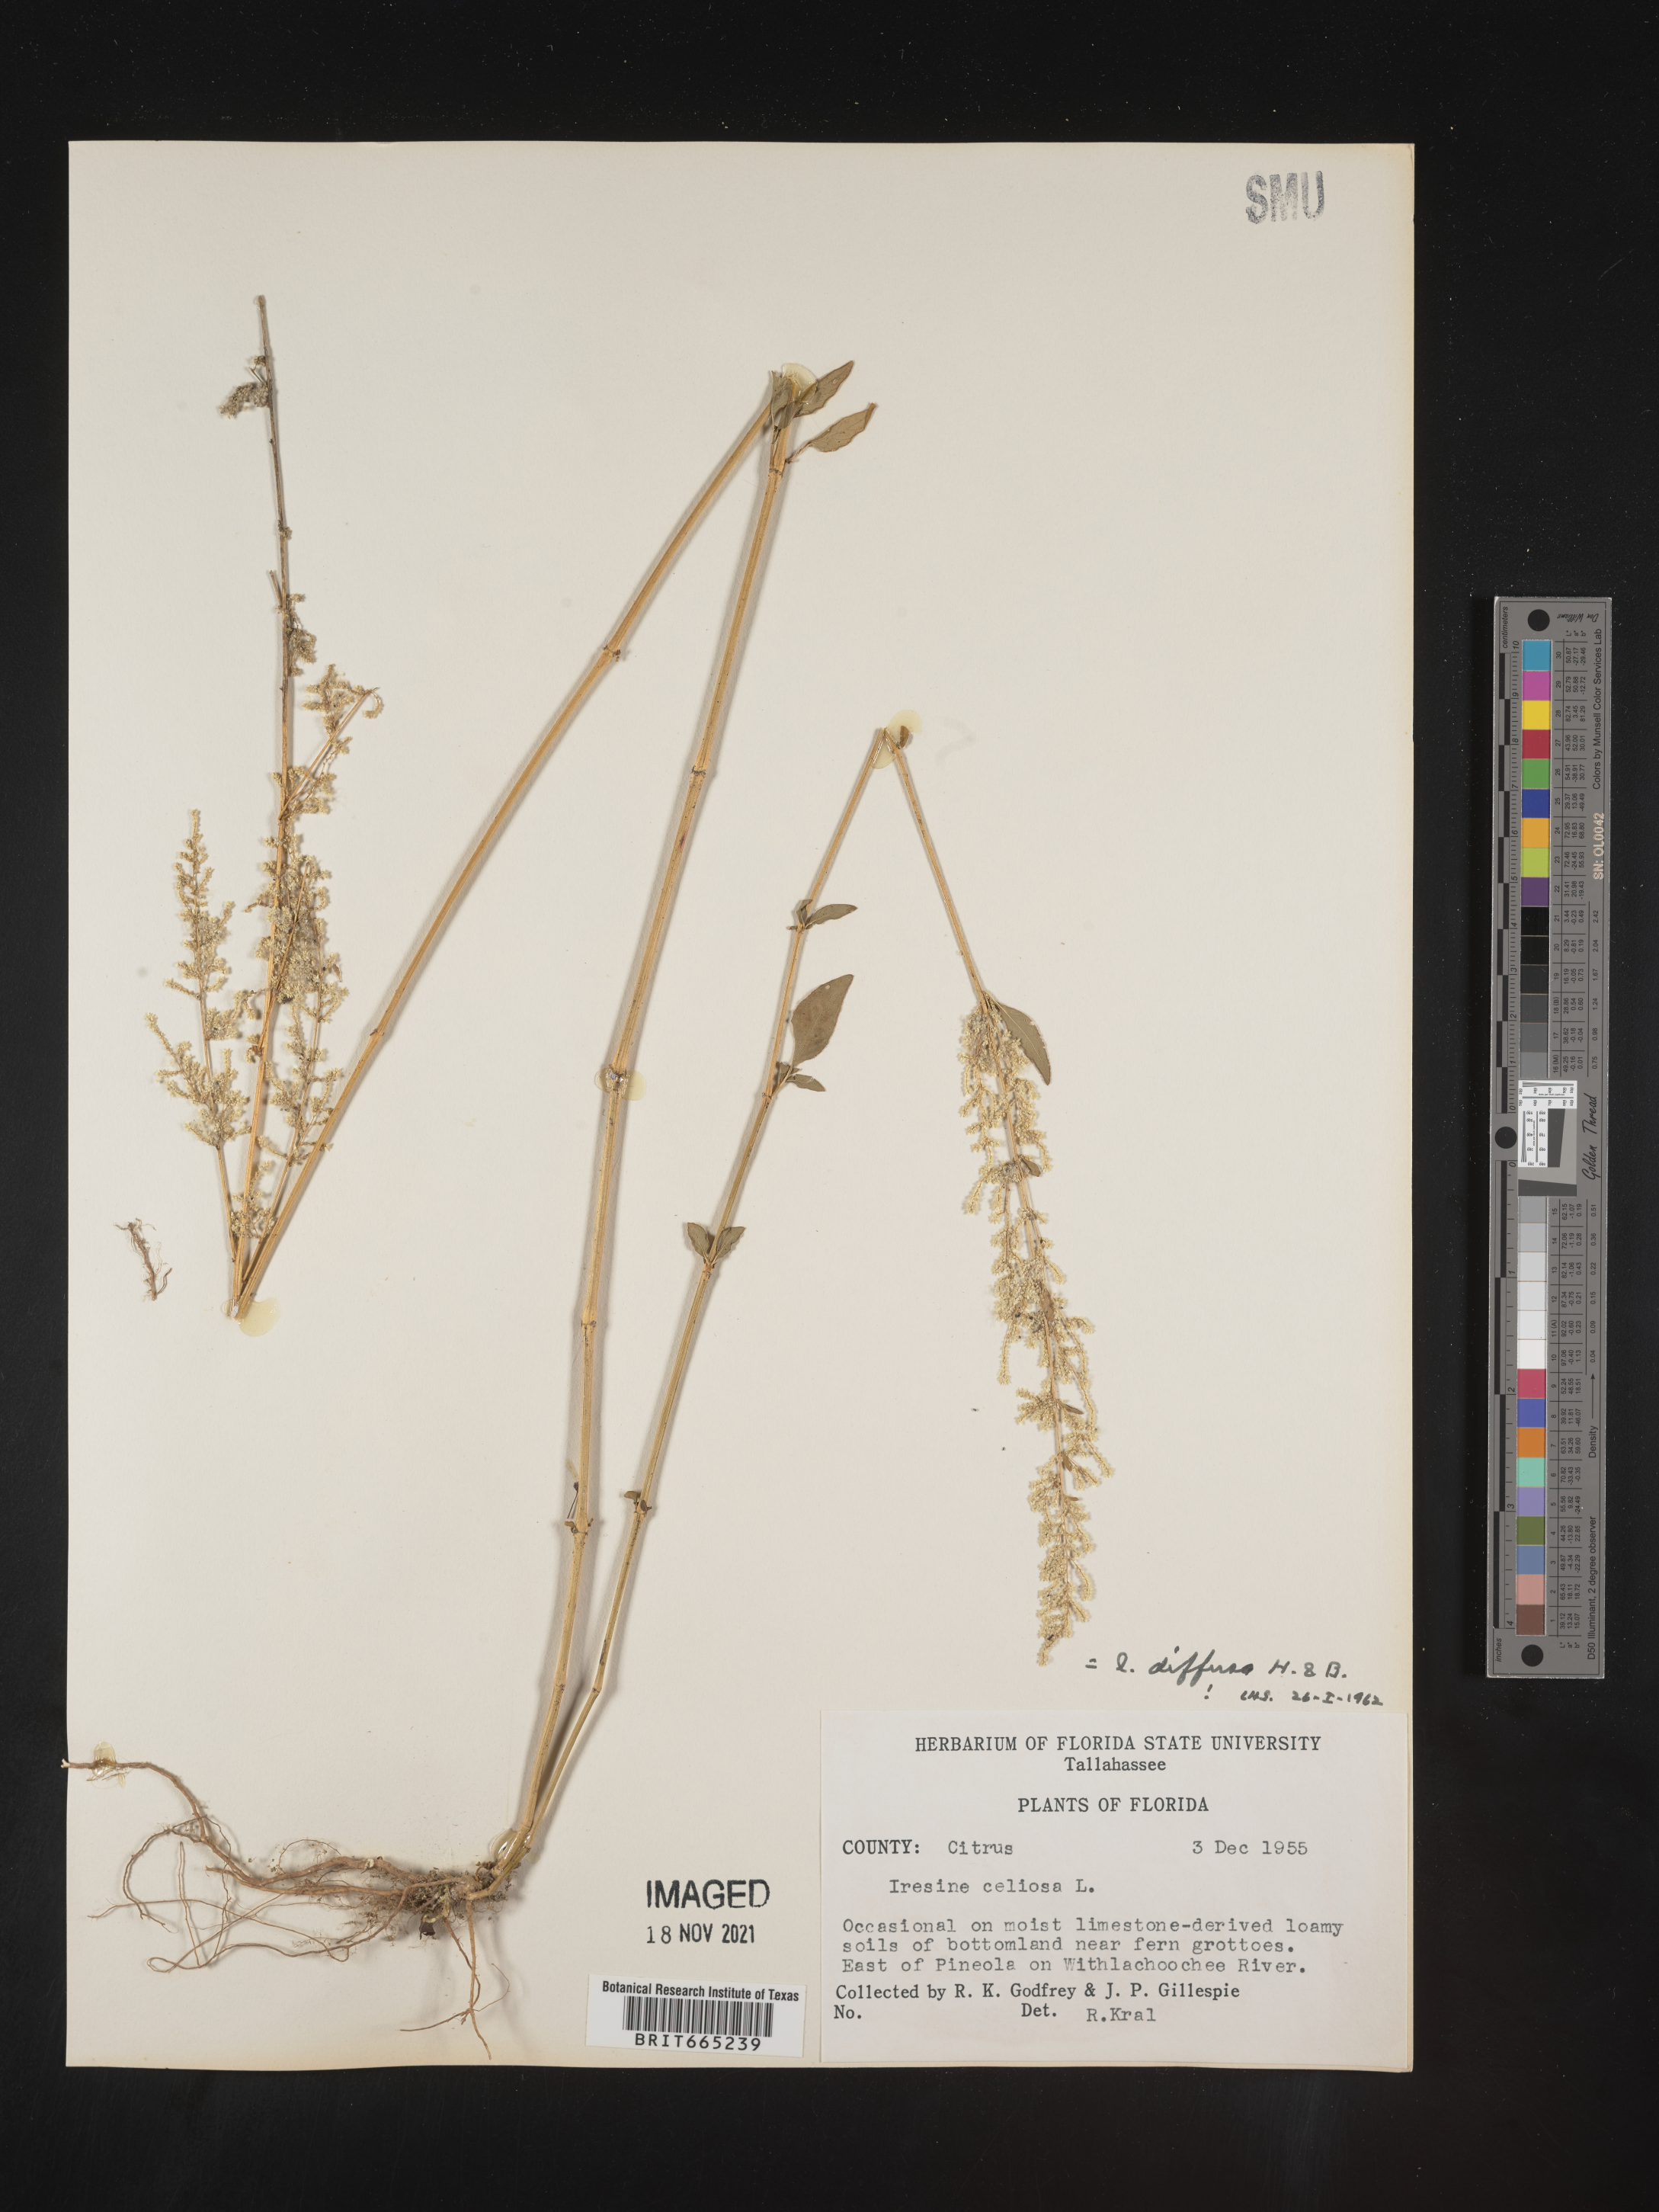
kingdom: Plantae
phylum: Tracheophyta
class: Magnoliopsida
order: Caryophyllales
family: Amaranthaceae
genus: Iresine
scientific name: Iresine
